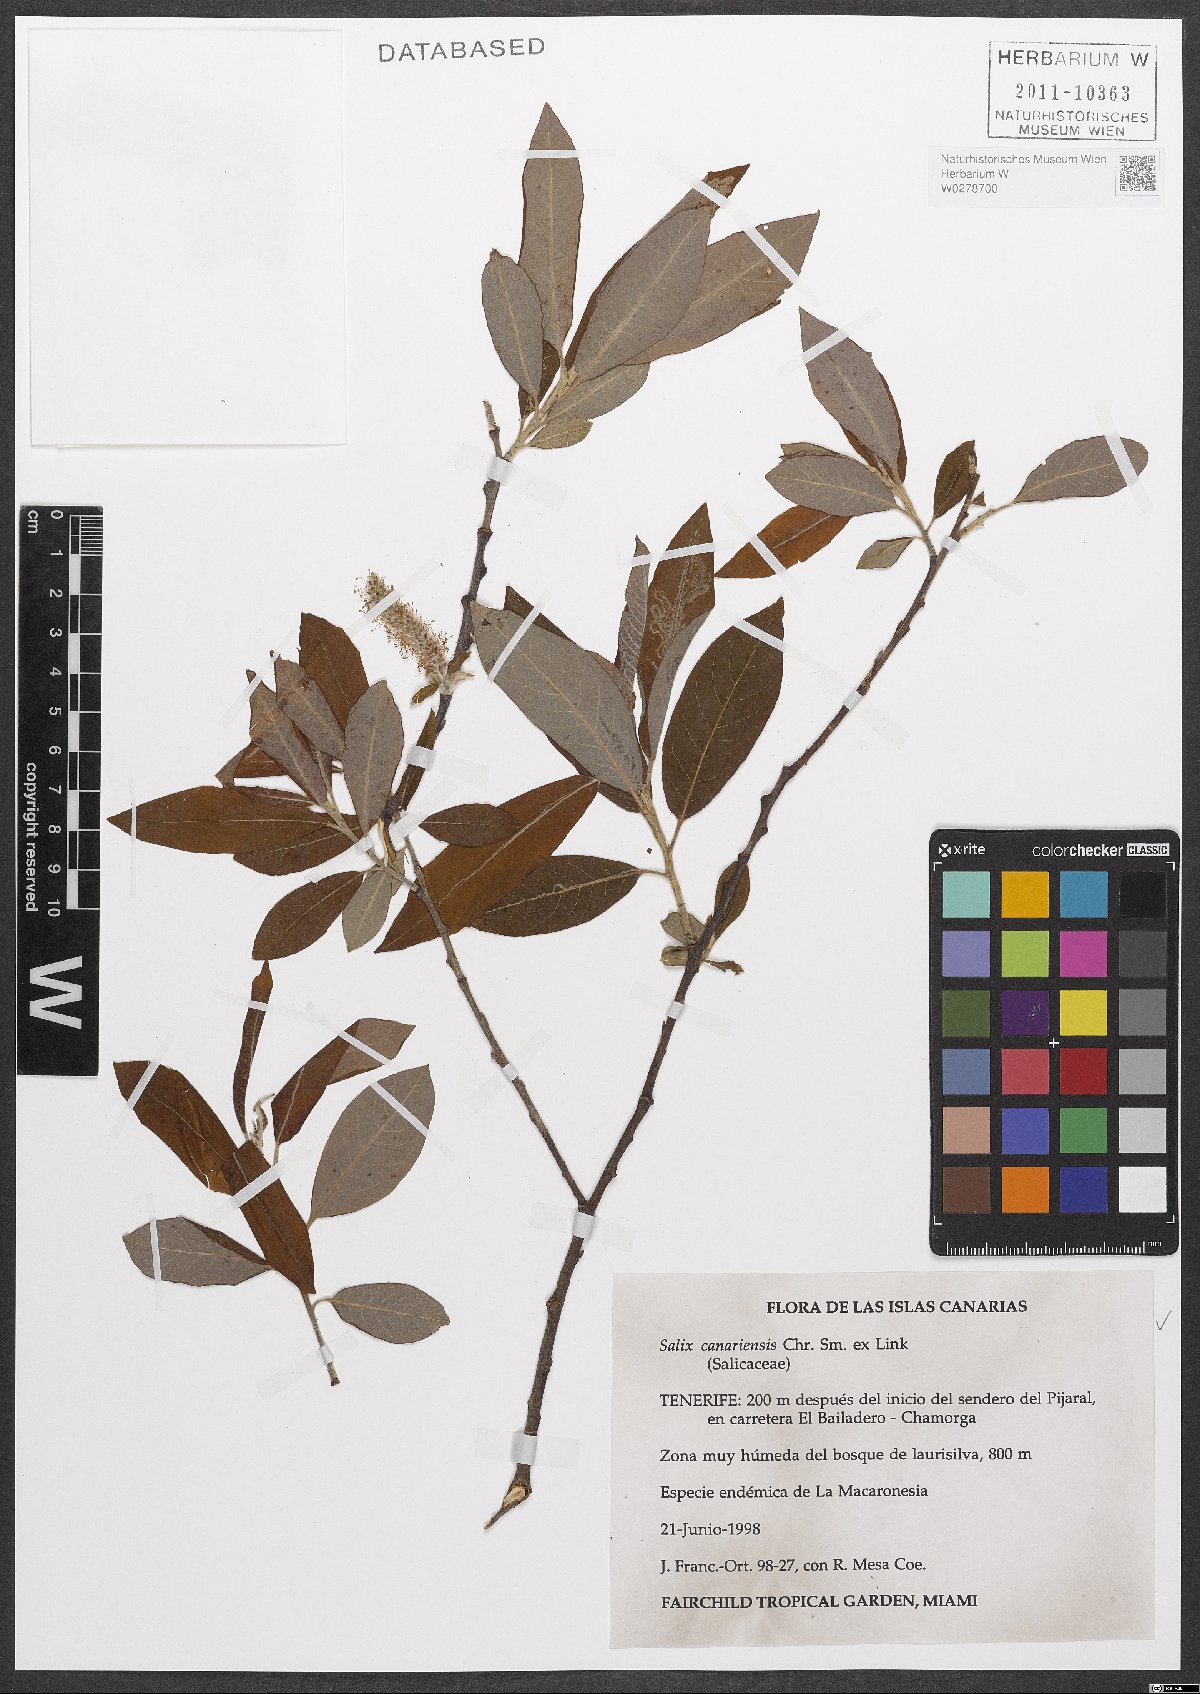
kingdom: Plantae
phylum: Tracheophyta
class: Magnoliopsida
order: Malpighiales
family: Salicaceae
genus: Salix
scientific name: Salix canariensis
